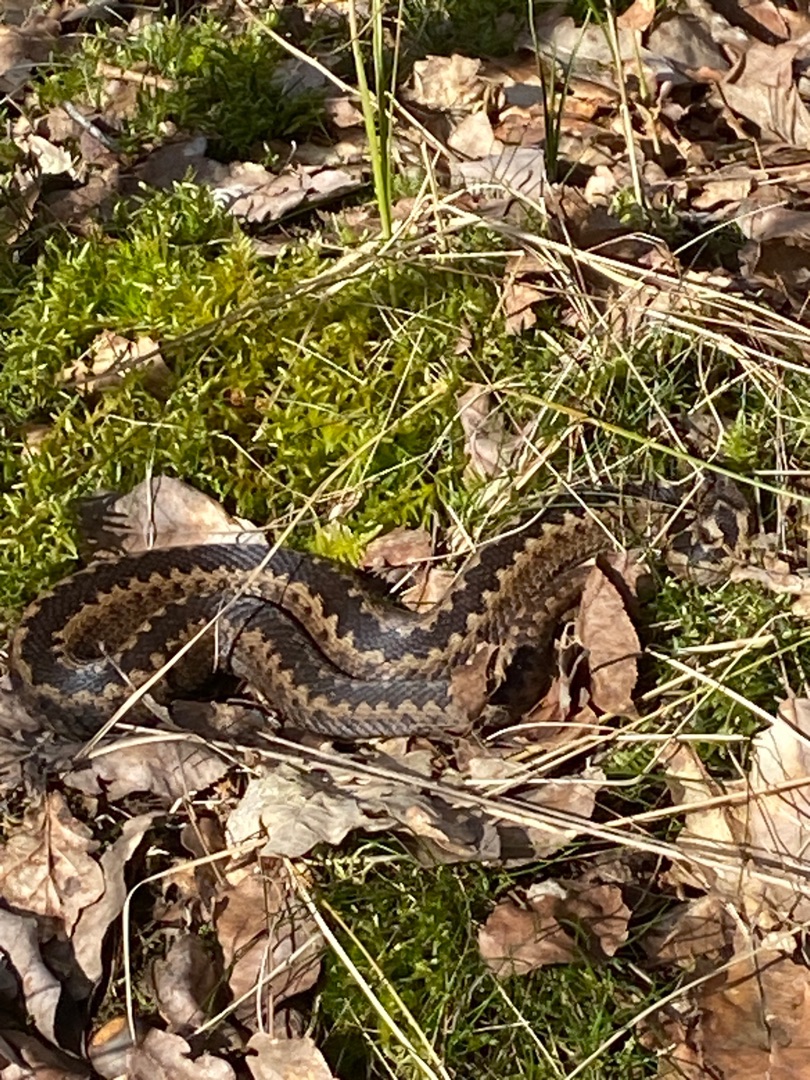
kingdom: Animalia
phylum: Chordata
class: Squamata
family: Viperidae
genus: Vipera
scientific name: Vipera berus
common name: Hugorm
